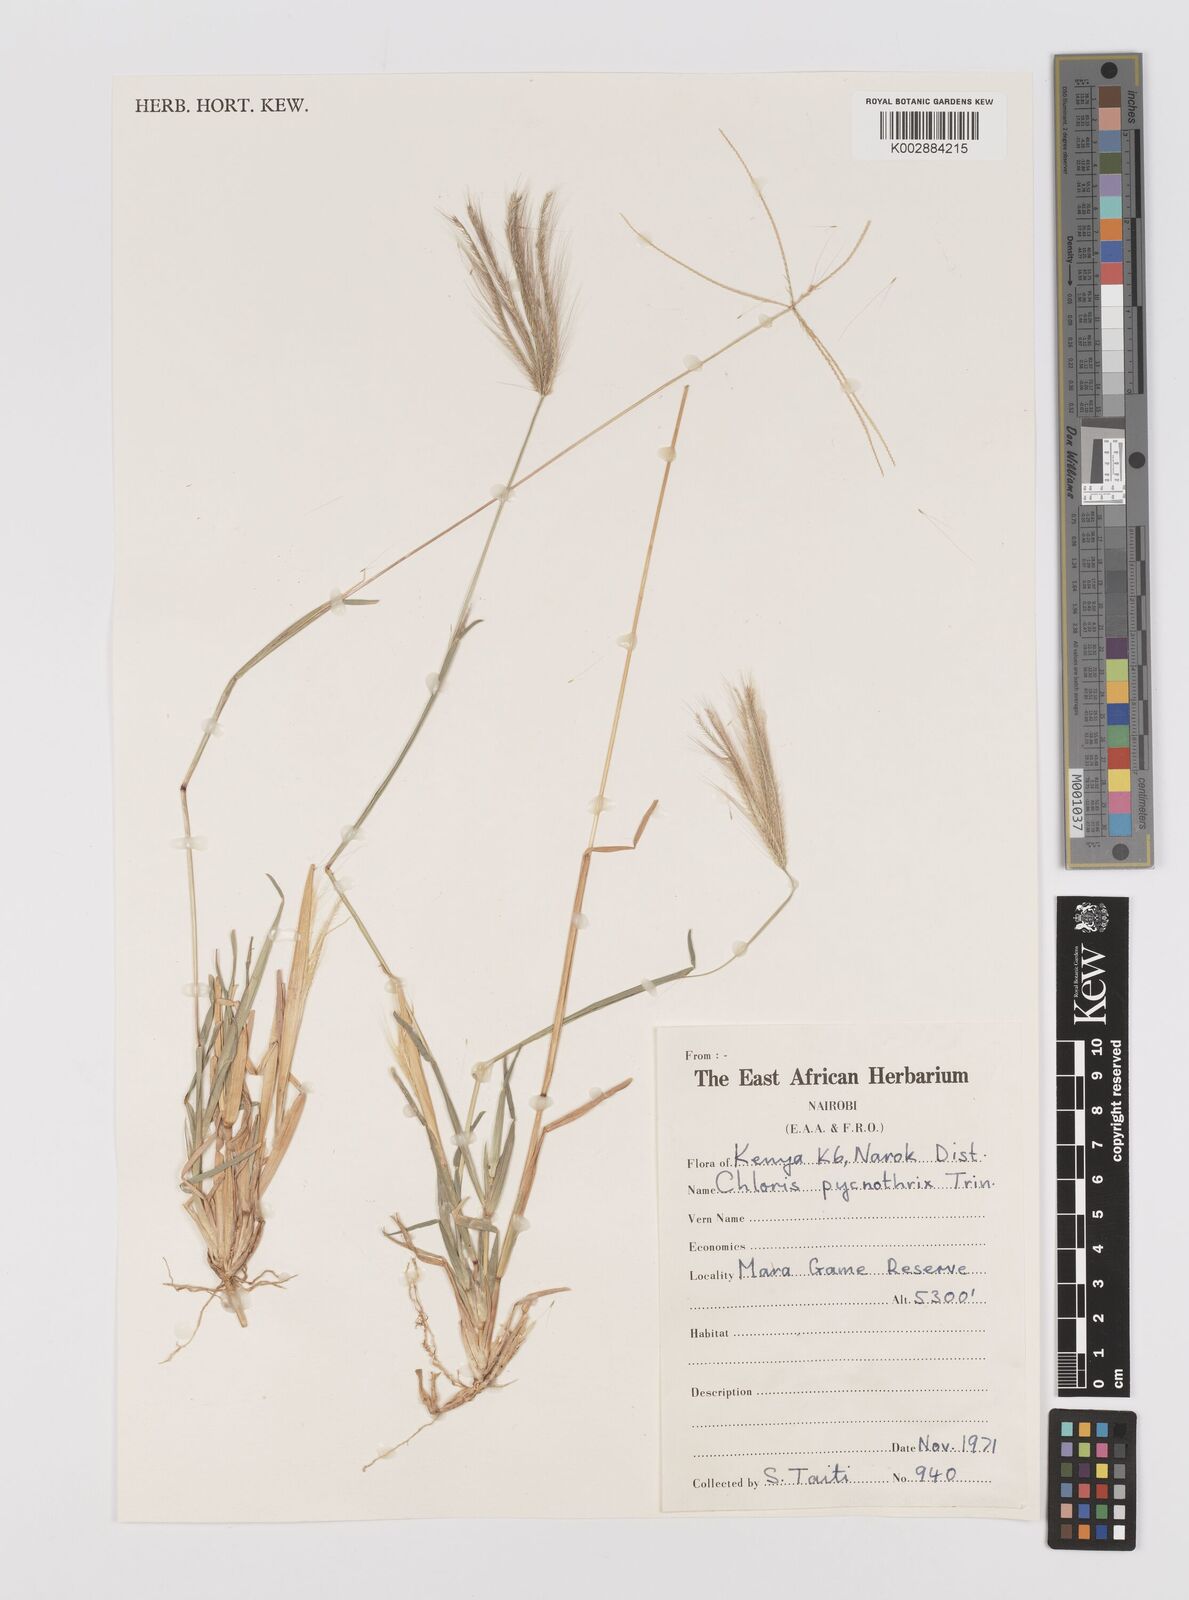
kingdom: Plantae
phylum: Tracheophyta
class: Liliopsida
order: Poales
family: Poaceae
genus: Chloris
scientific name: Chloris pycnothrix
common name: Spiderweb chloris
